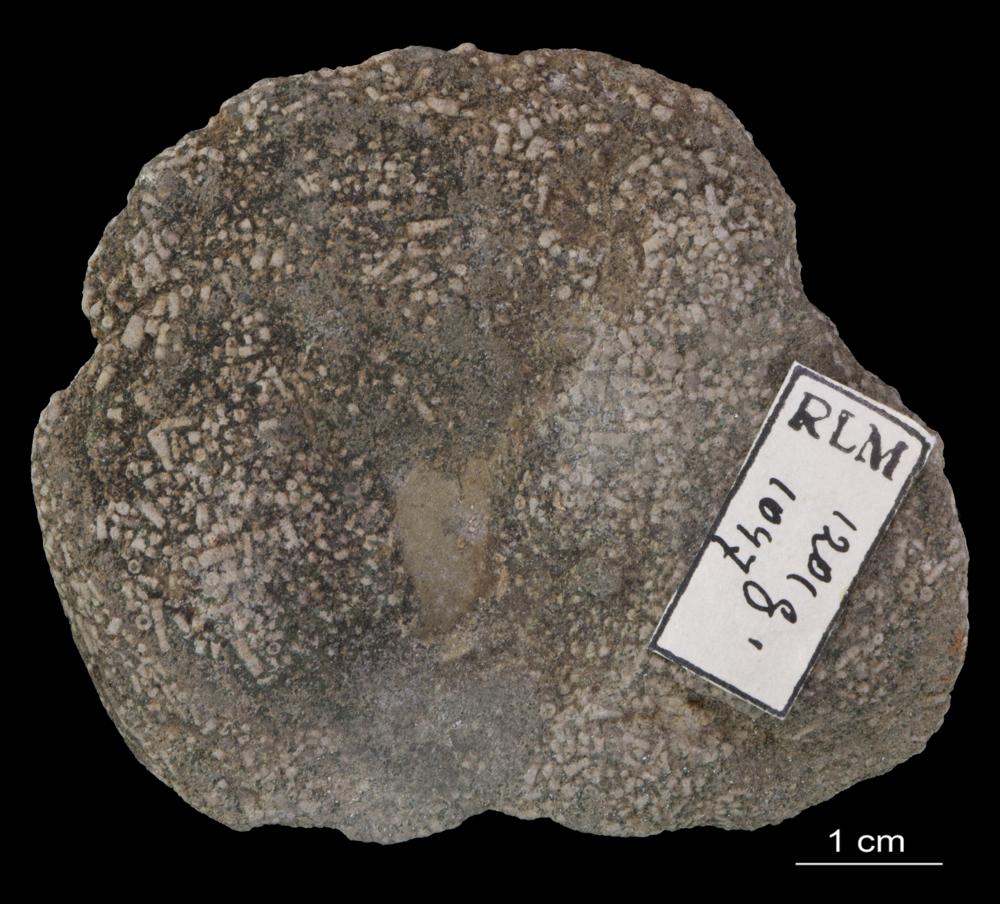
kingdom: Animalia
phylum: Annelida
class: Polychaeta
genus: Volborthella
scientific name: Volborthella tenuis
